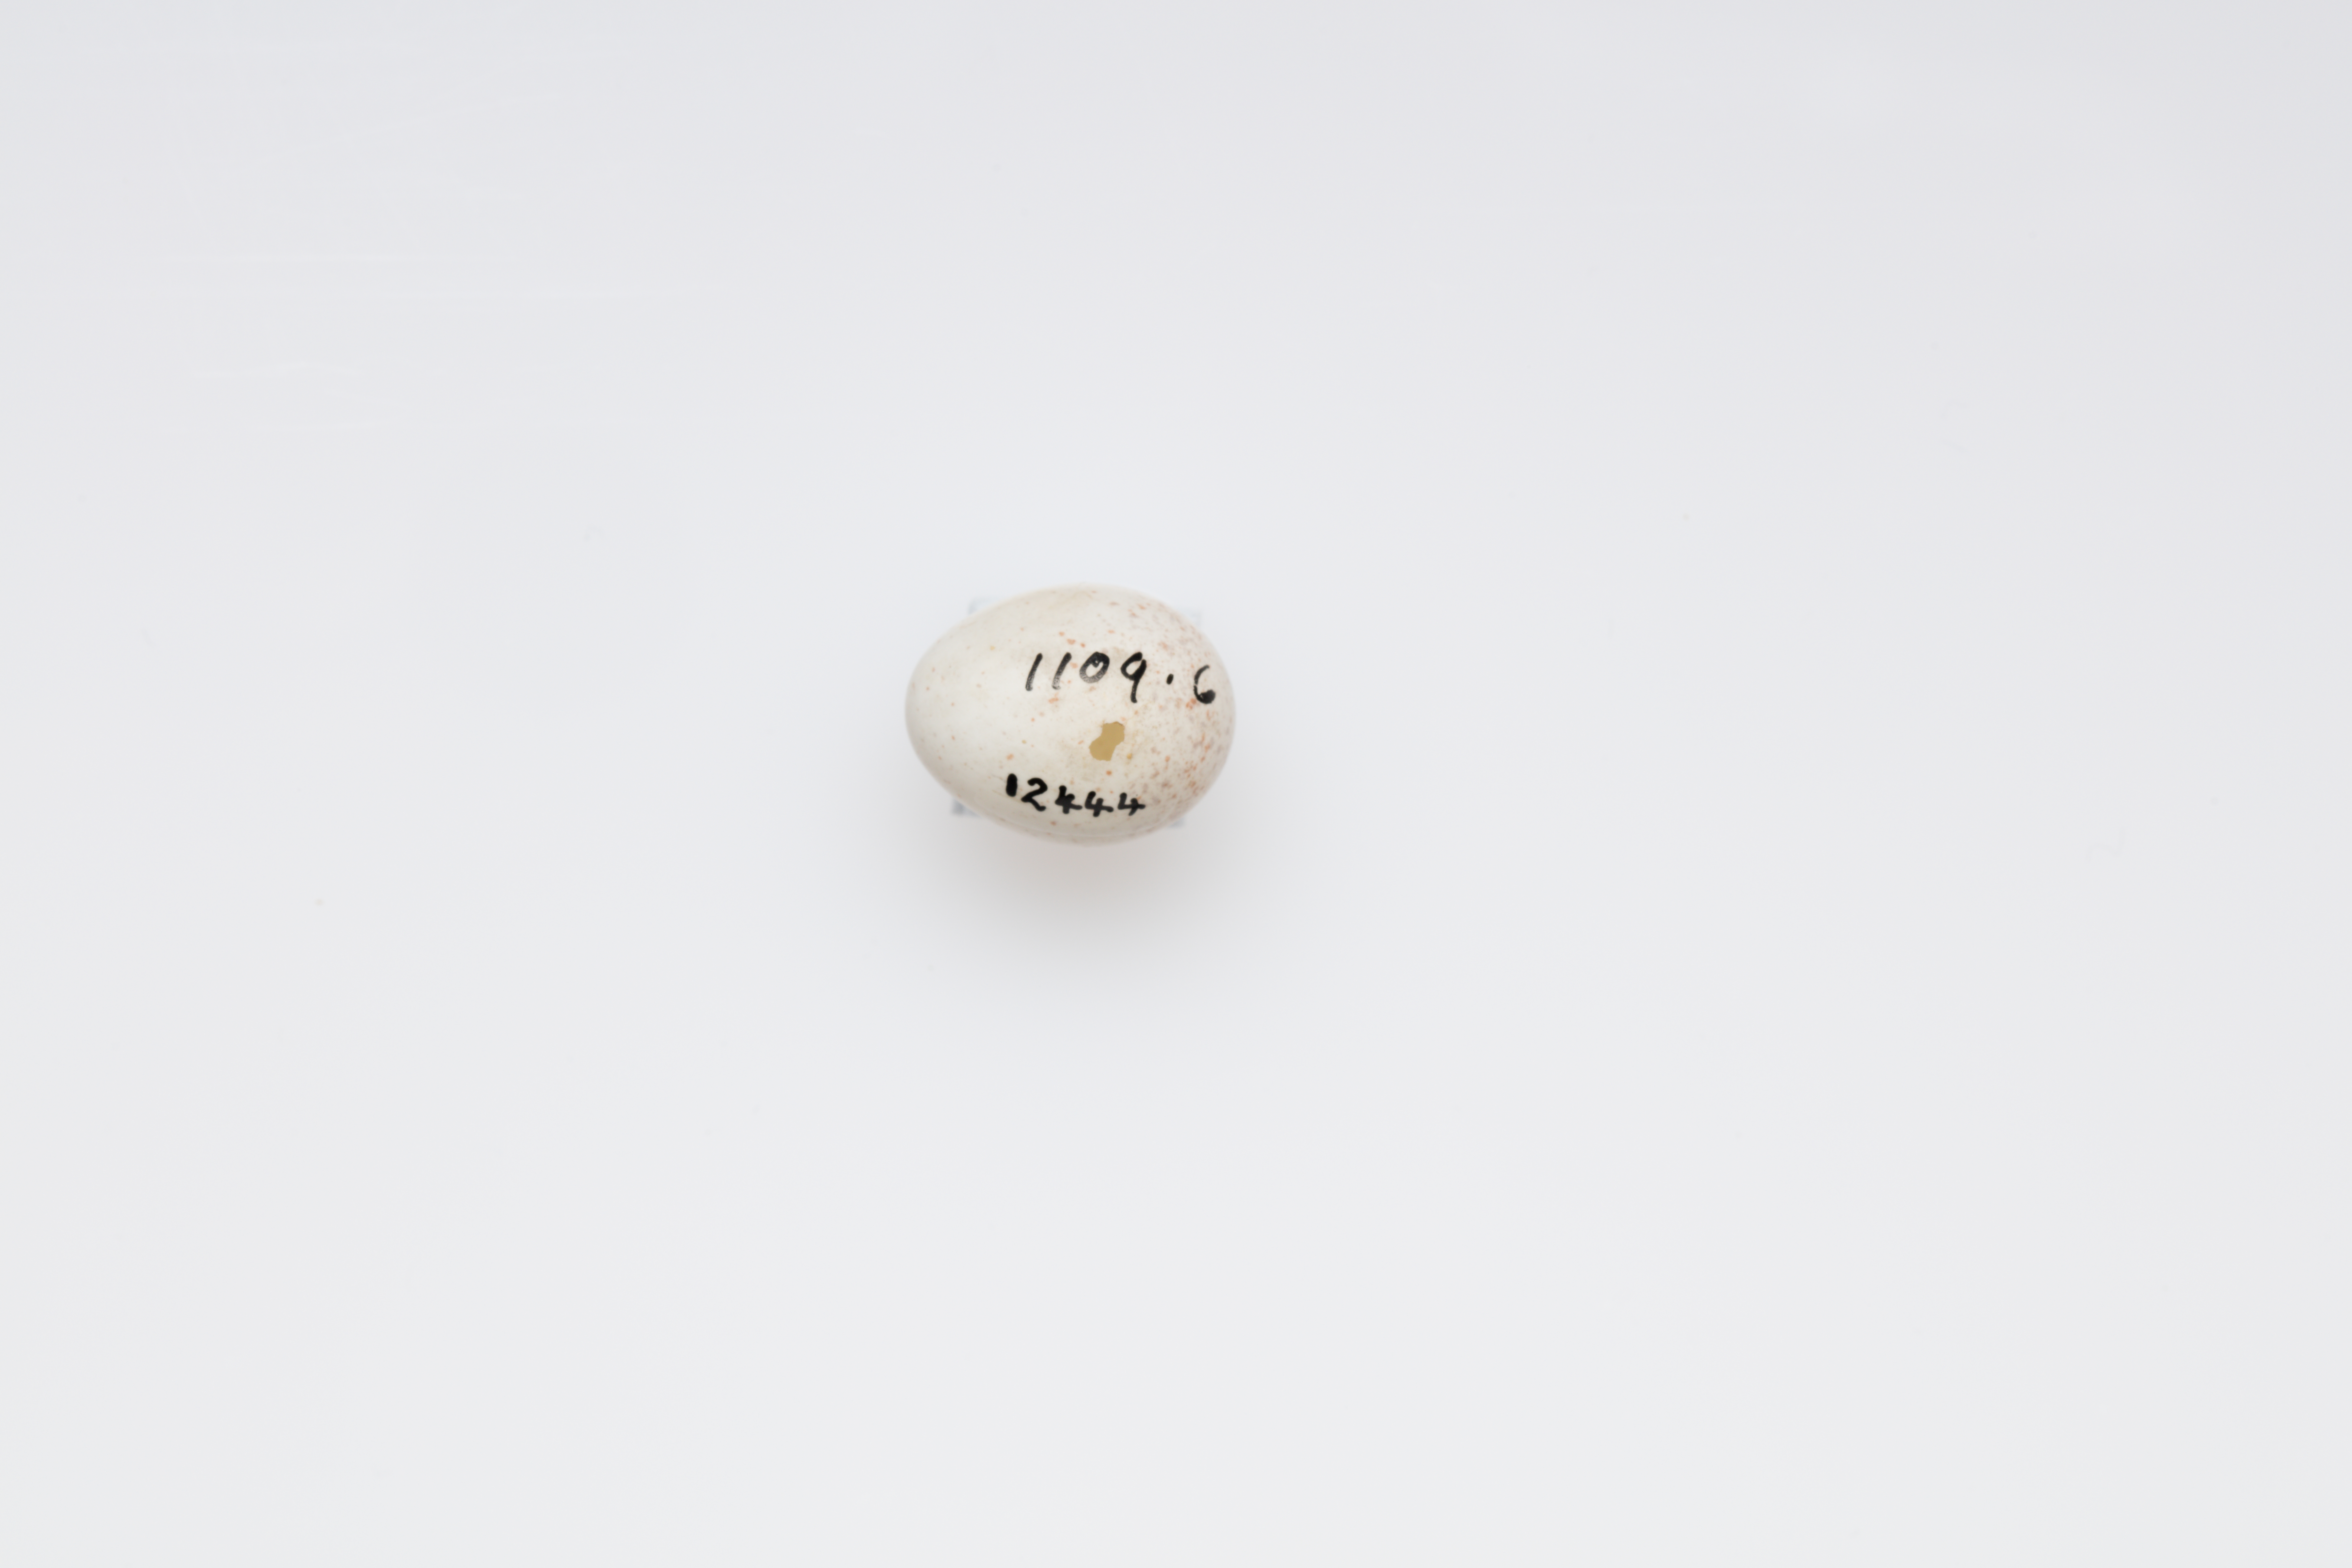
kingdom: Animalia
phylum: Chordata
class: Aves
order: Passeriformes
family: Aegithalidae
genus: Aegithalos
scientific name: Aegithalos caudatus
